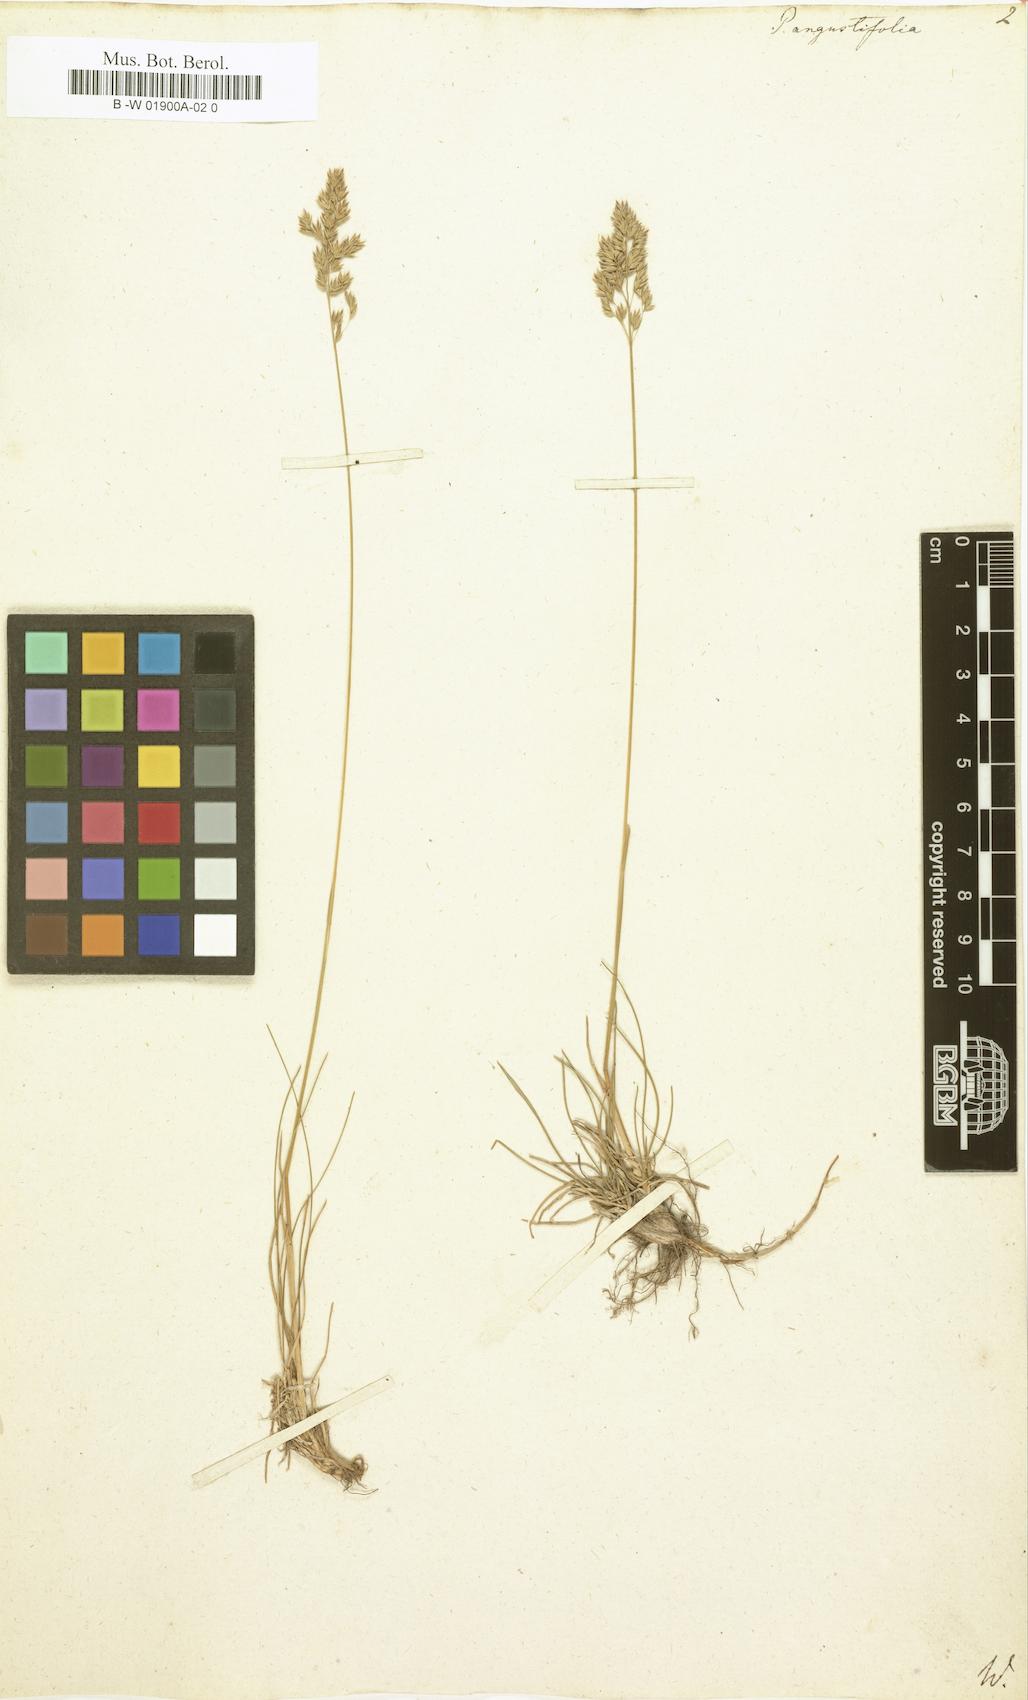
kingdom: Plantae
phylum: Tracheophyta
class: Liliopsida
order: Poales
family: Poaceae
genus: Poa
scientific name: Poa pratensis
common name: Kentucky bluegrass
